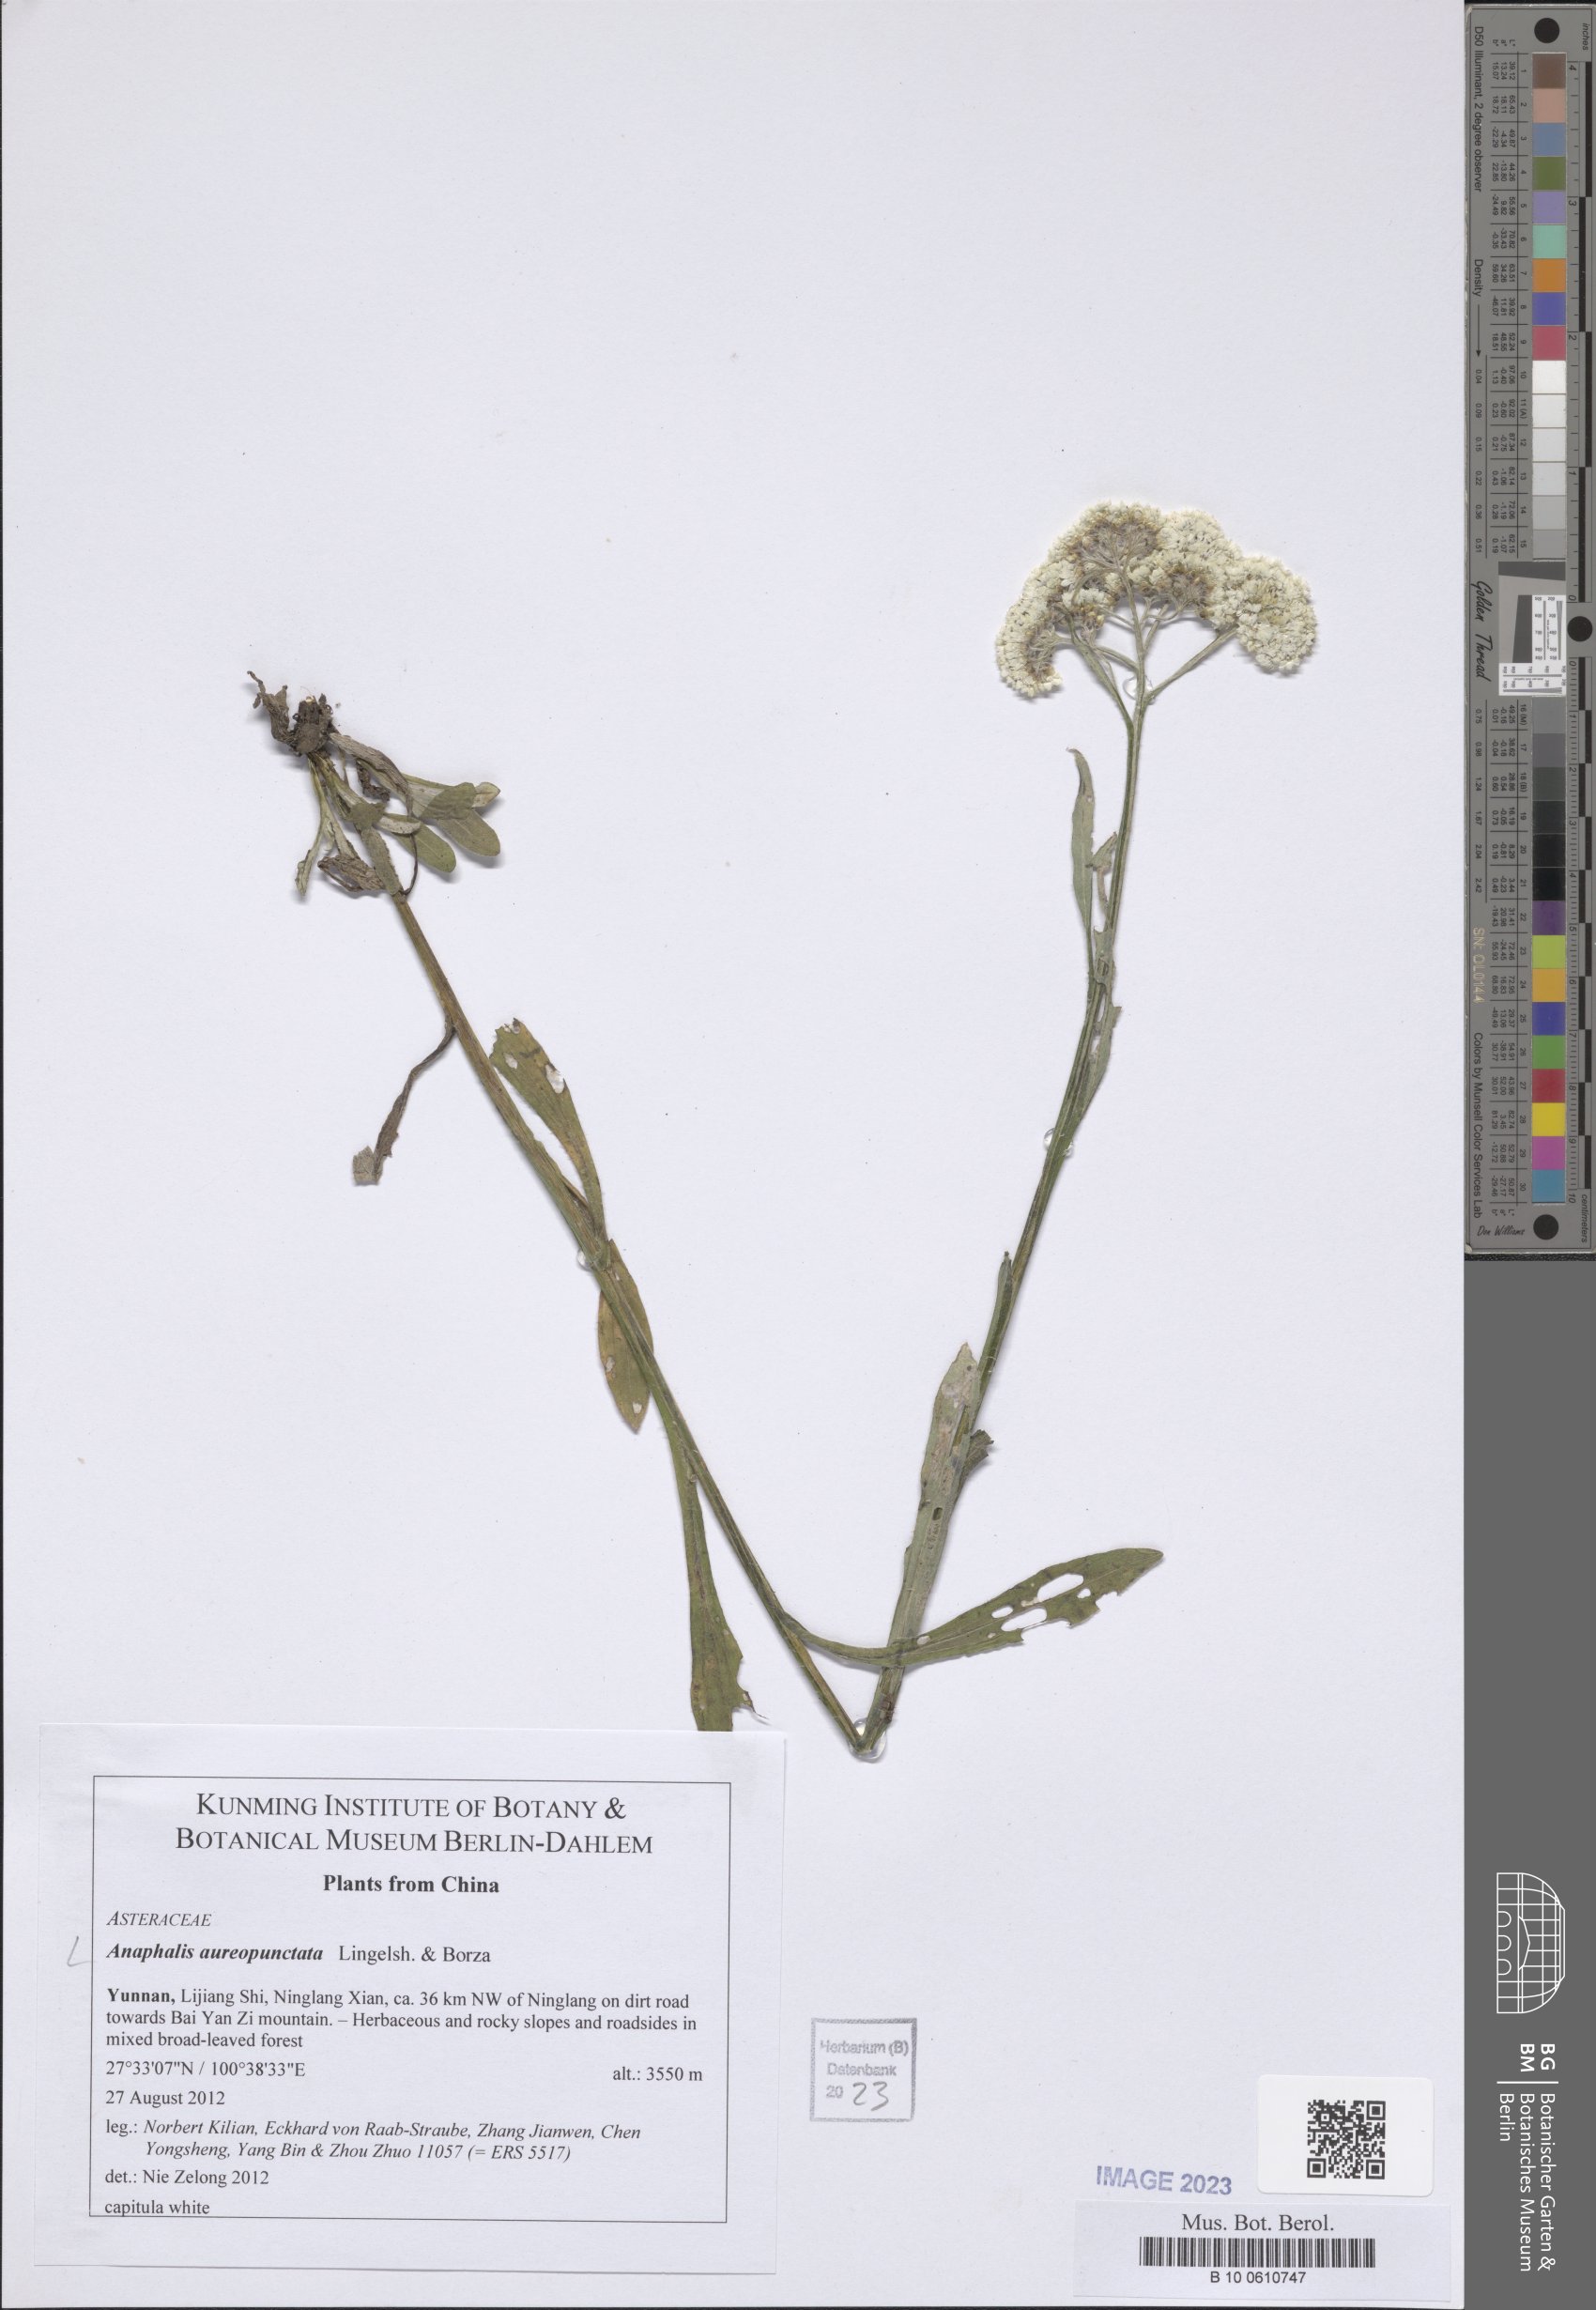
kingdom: Plantae
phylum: Tracheophyta
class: Magnoliopsida
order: Asterales
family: Asteraceae
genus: Anaphalis
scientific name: Anaphalis aureopunctata
